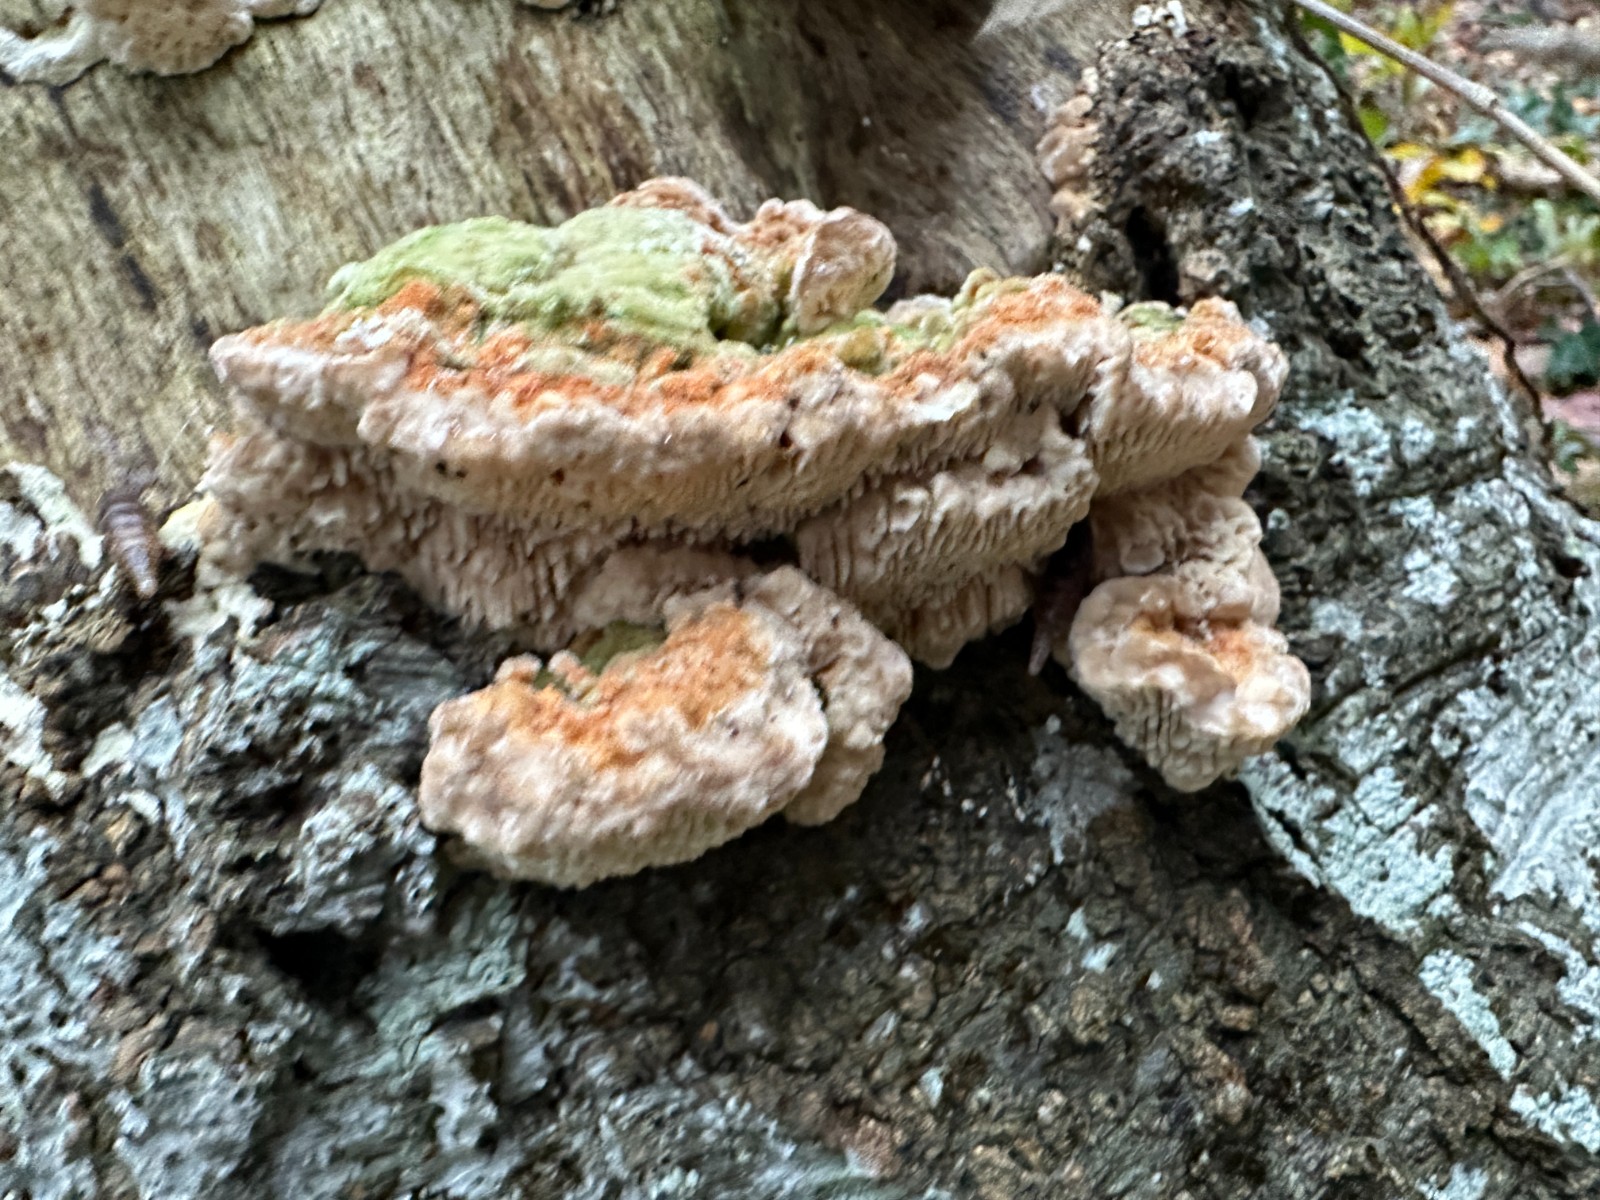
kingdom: Fungi
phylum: Basidiomycota
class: Agaricomycetes
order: Polyporales
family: Polyporaceae
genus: Lenzites
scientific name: Lenzites betulinus
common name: birke-læderporesvamp
